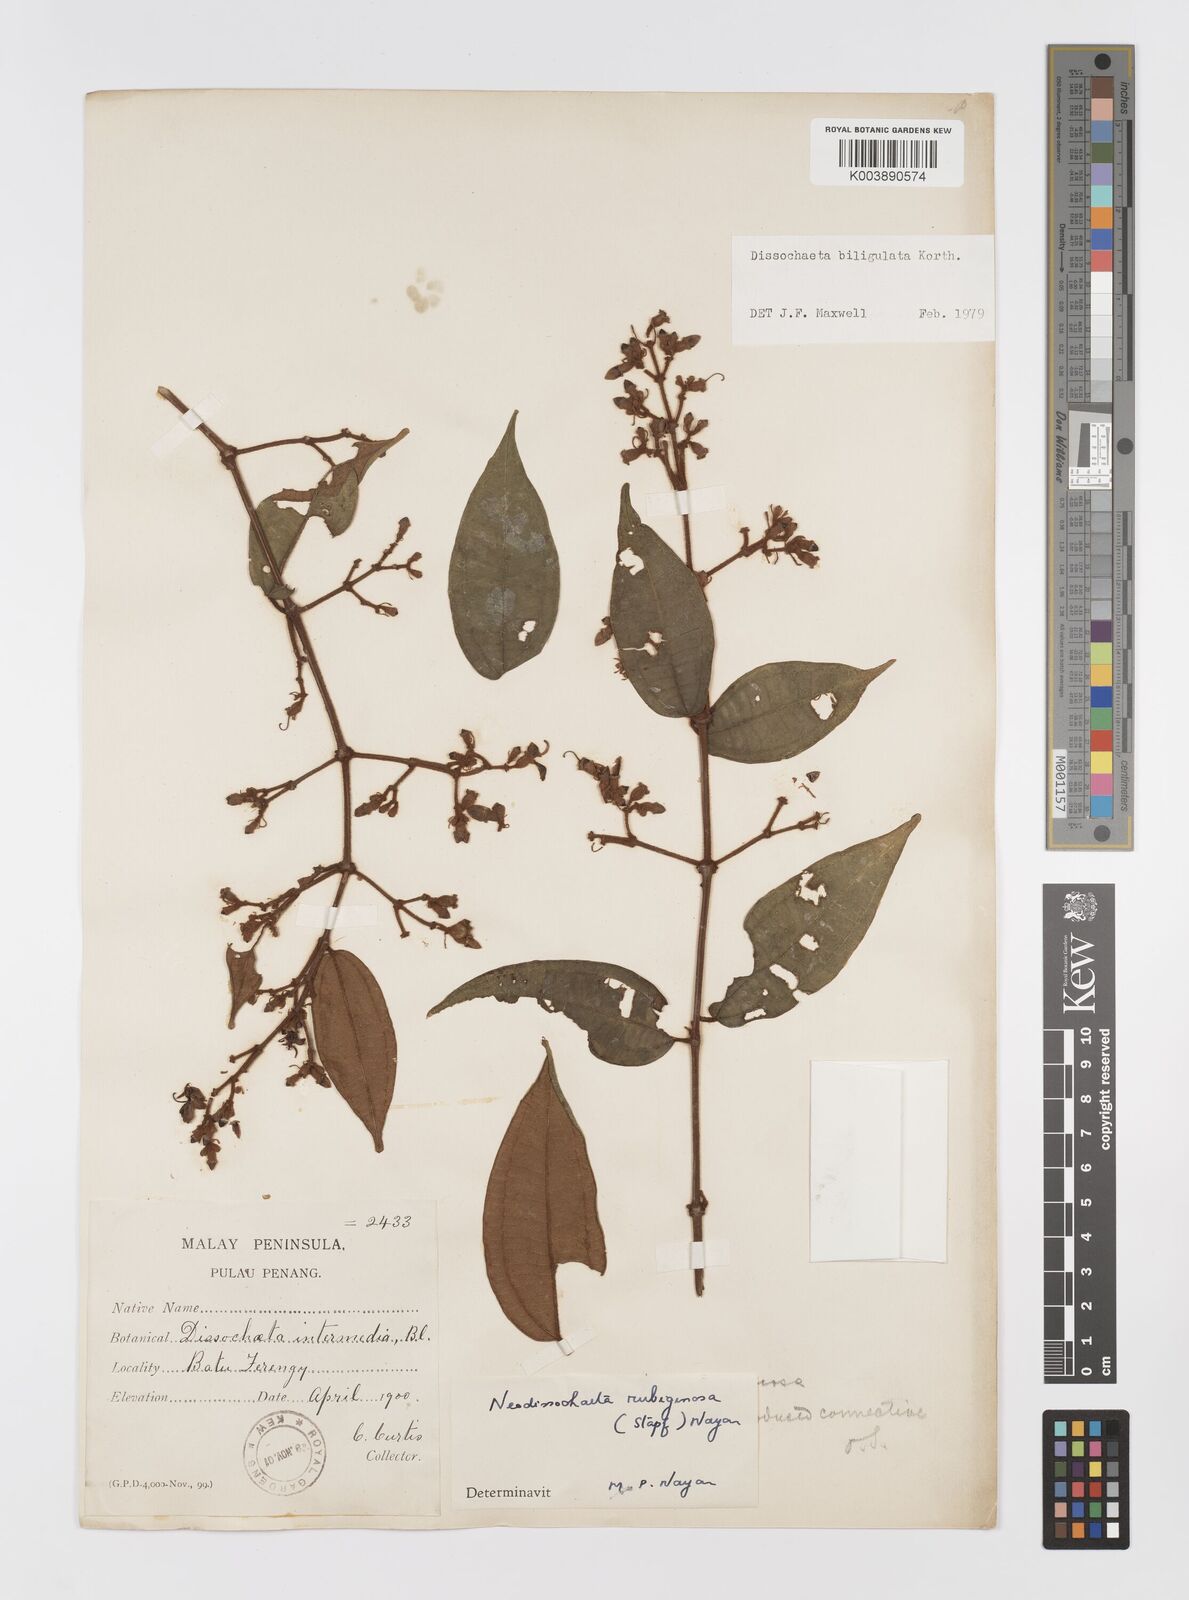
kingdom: Plantae
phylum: Tracheophyta
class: Magnoliopsida
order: Myrtales
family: Melastomataceae
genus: Dissochaeta
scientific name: Dissochaeta biligulata
